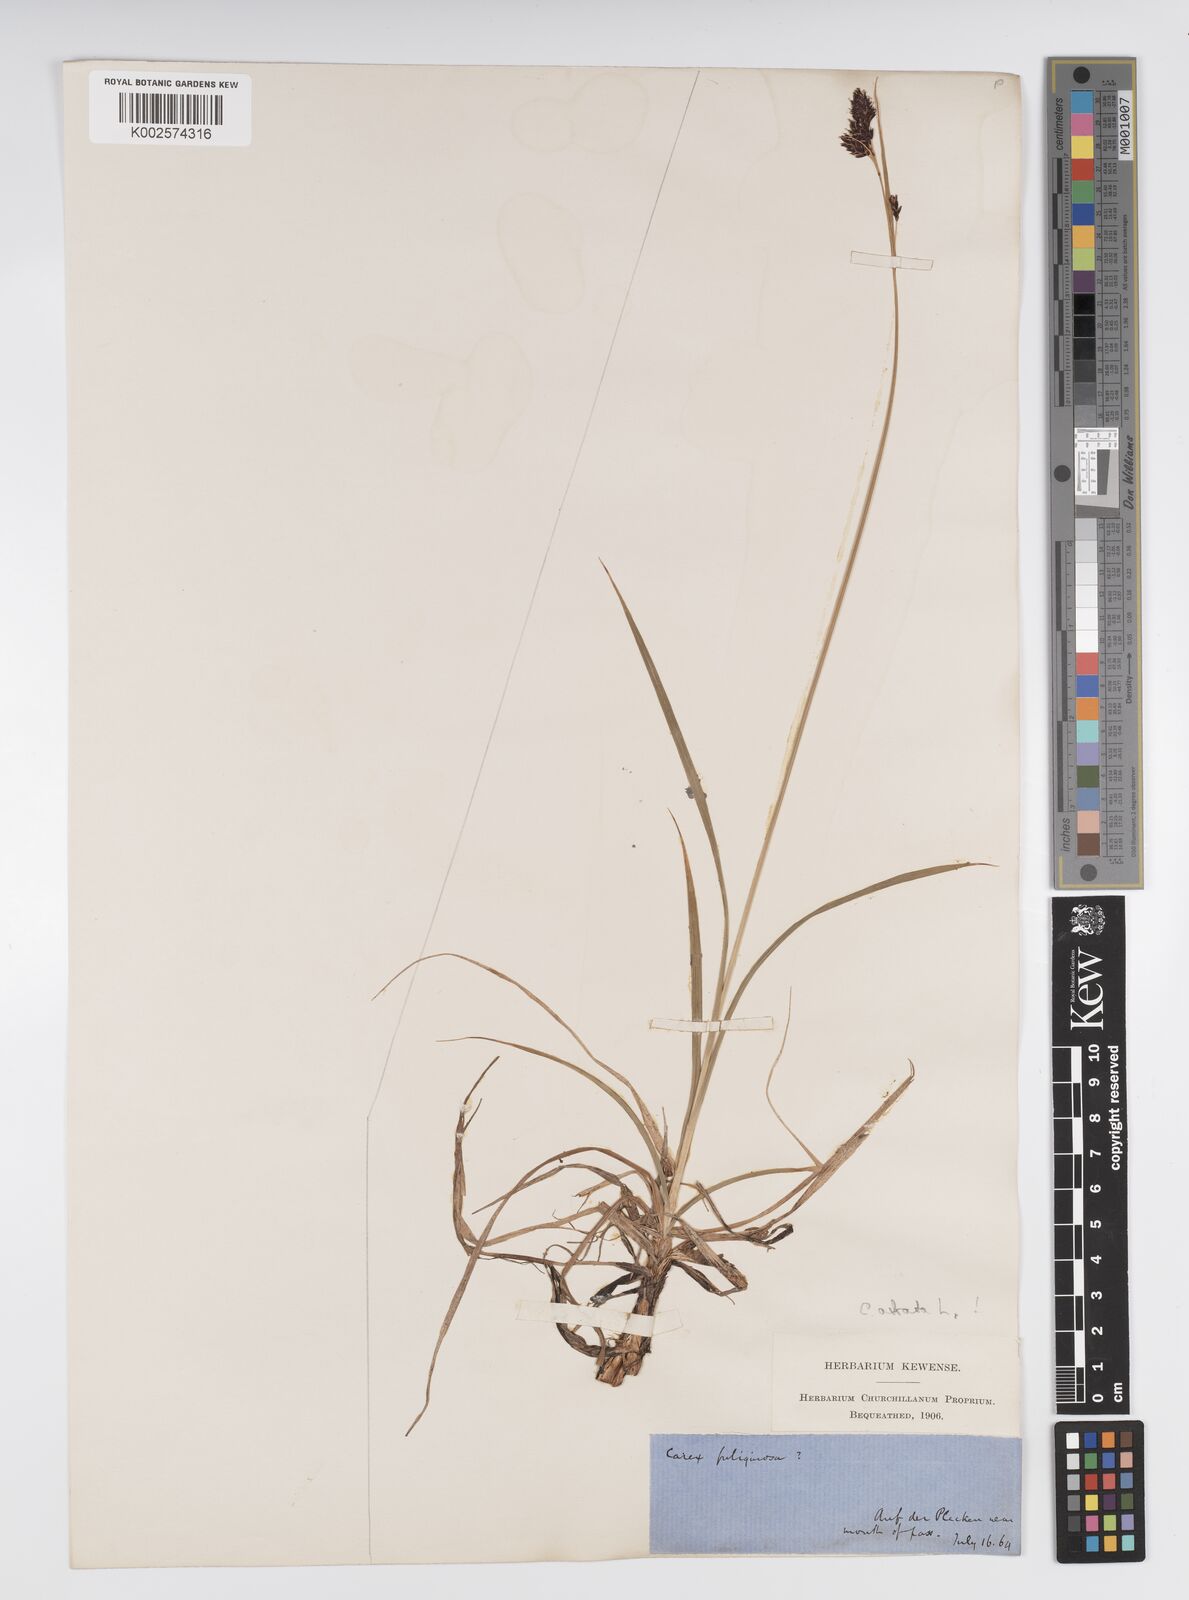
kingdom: Plantae
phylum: Tracheophyta
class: Liliopsida
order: Poales
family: Cyperaceae
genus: Carex
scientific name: Carex fuliginosa
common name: Few-flowered sedge
